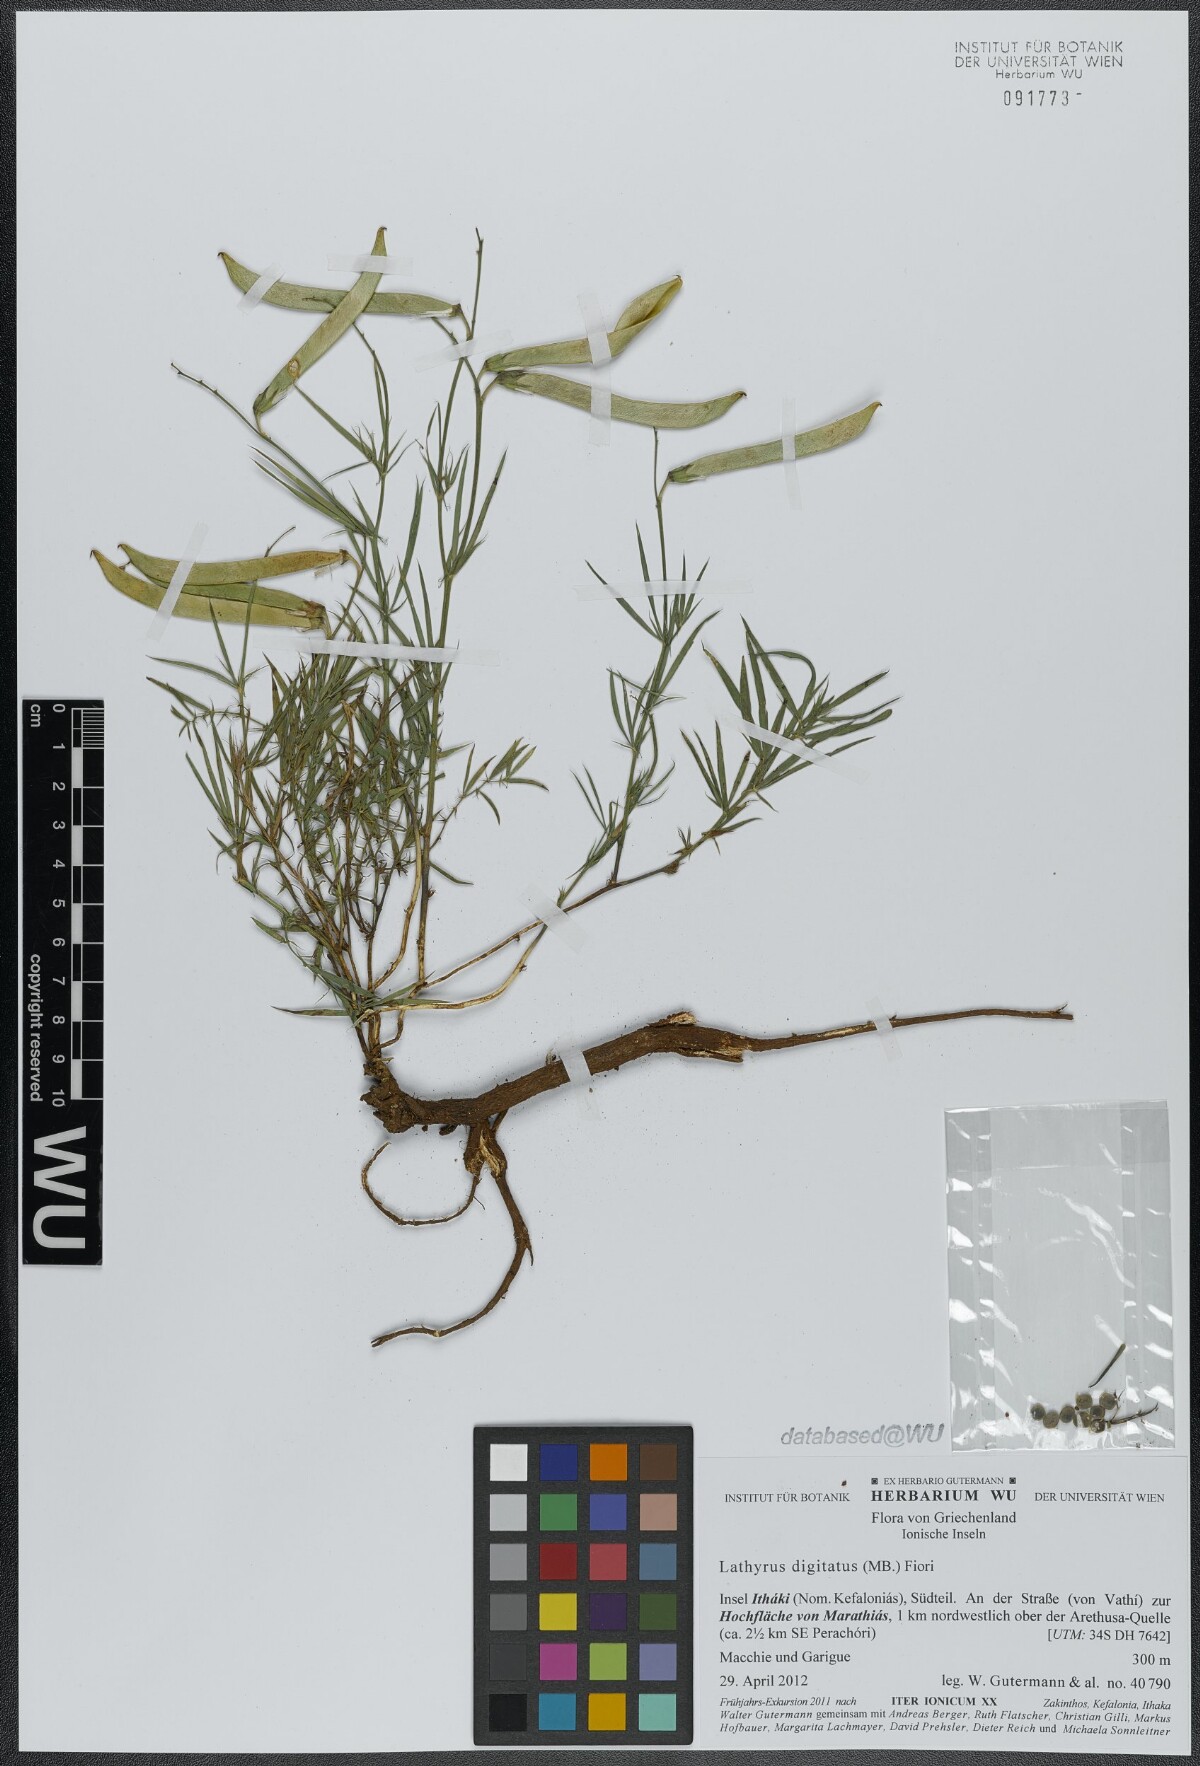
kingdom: Plantae
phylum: Tracheophyta
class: Magnoliopsida
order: Fabales
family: Fabaceae
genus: Lathyrus
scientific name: Lathyrus digitatus
